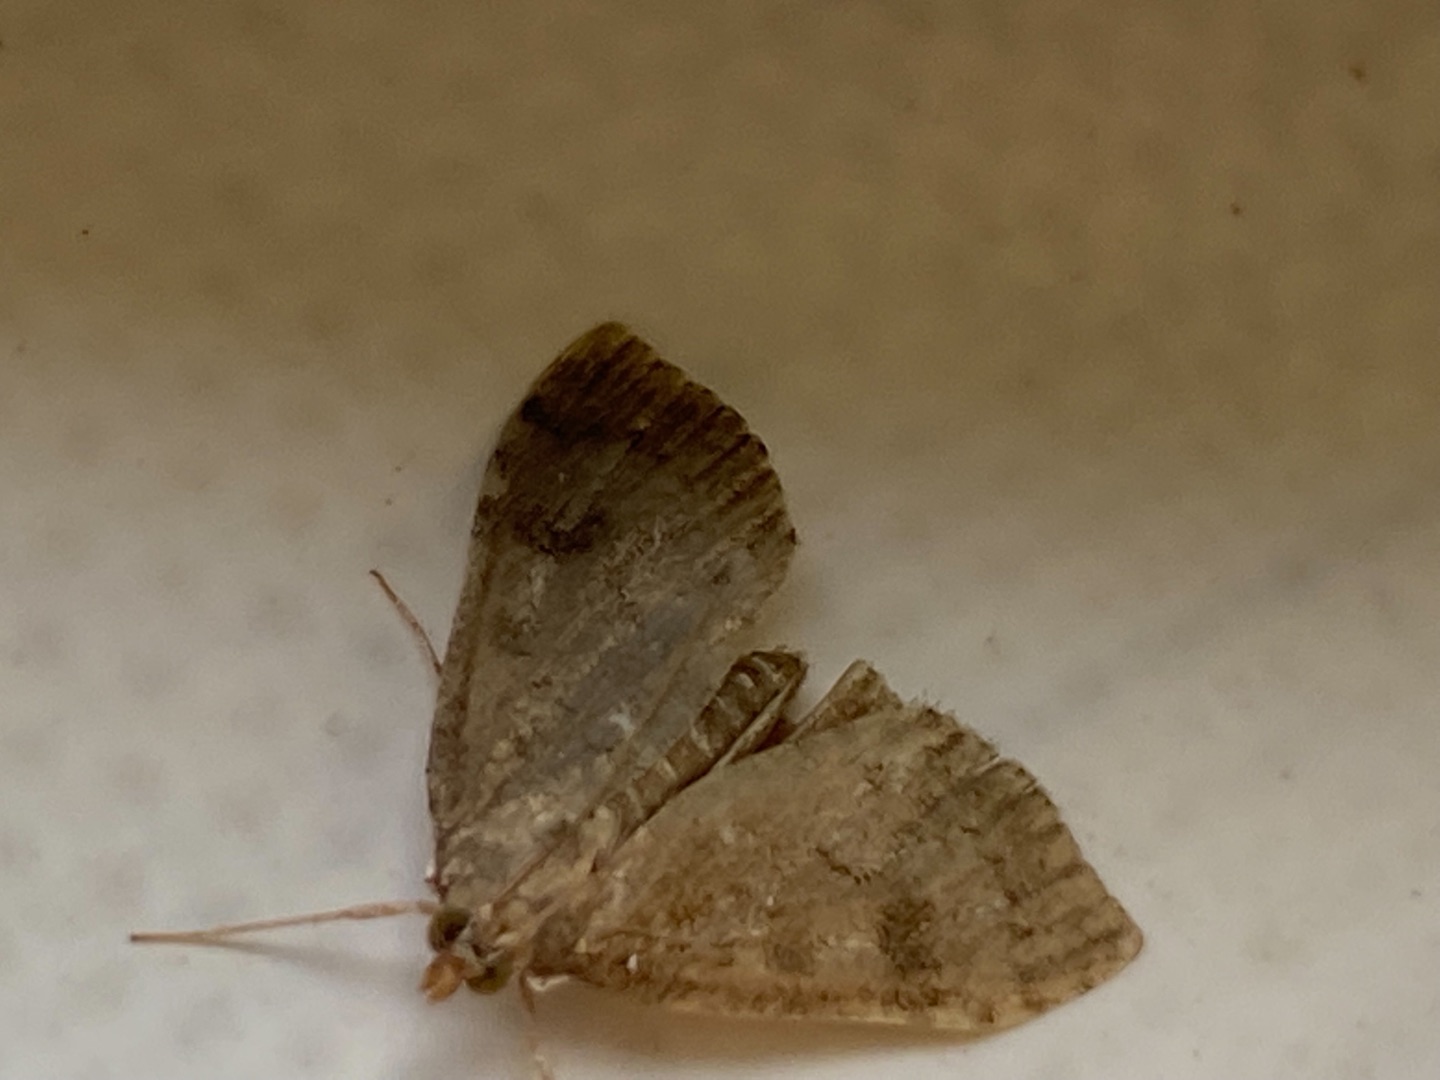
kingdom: Animalia
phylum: Arthropoda
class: Insecta
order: Lepidoptera
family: Crambidae
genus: Udea
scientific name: Udea prunalis
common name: Slåenhalvmøl
